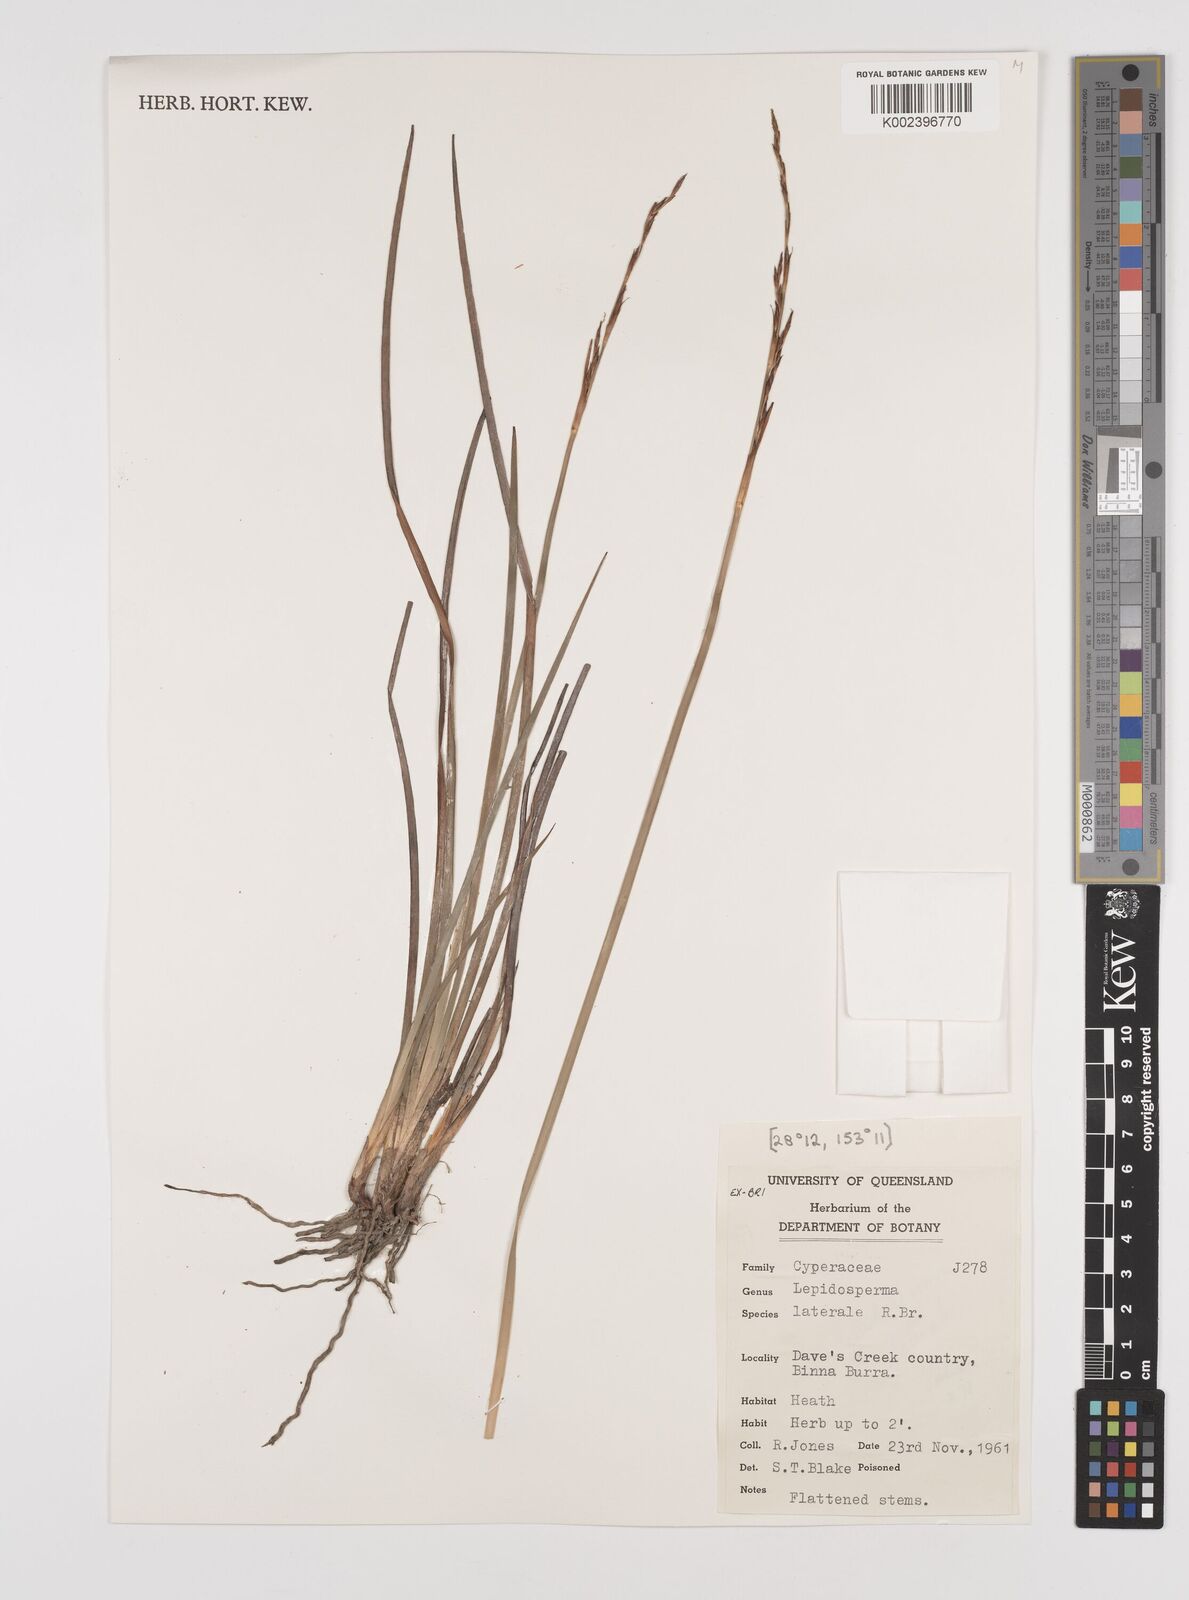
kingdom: Plantae
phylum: Tracheophyta
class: Liliopsida
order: Poales
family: Cyperaceae
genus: Lepidosperma
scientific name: Lepidosperma laterale
